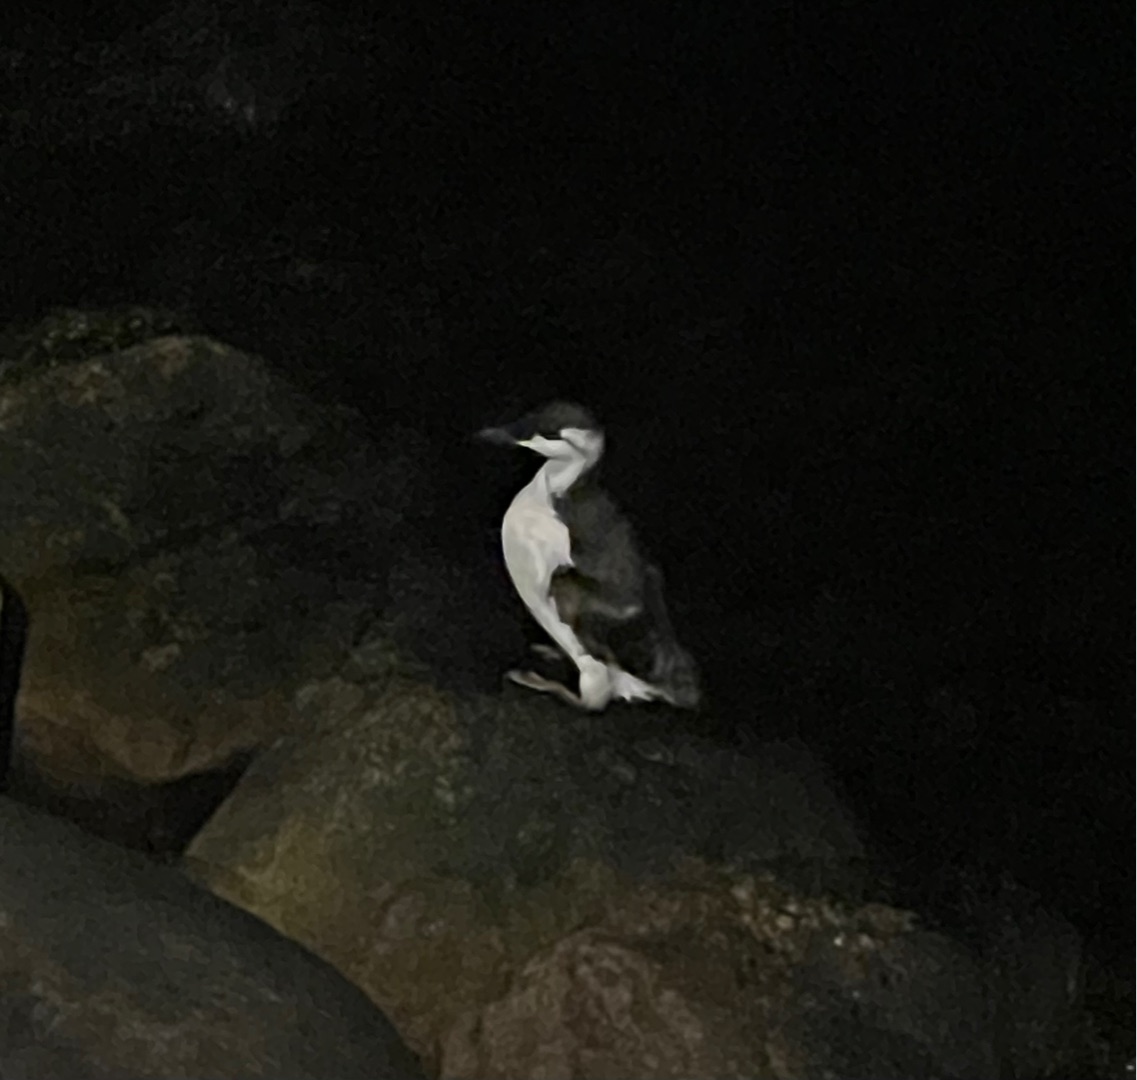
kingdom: Animalia
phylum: Chordata
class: Aves
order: Charadriiformes
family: Alcidae
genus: Uria
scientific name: Uria aalge
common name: Lomvie
